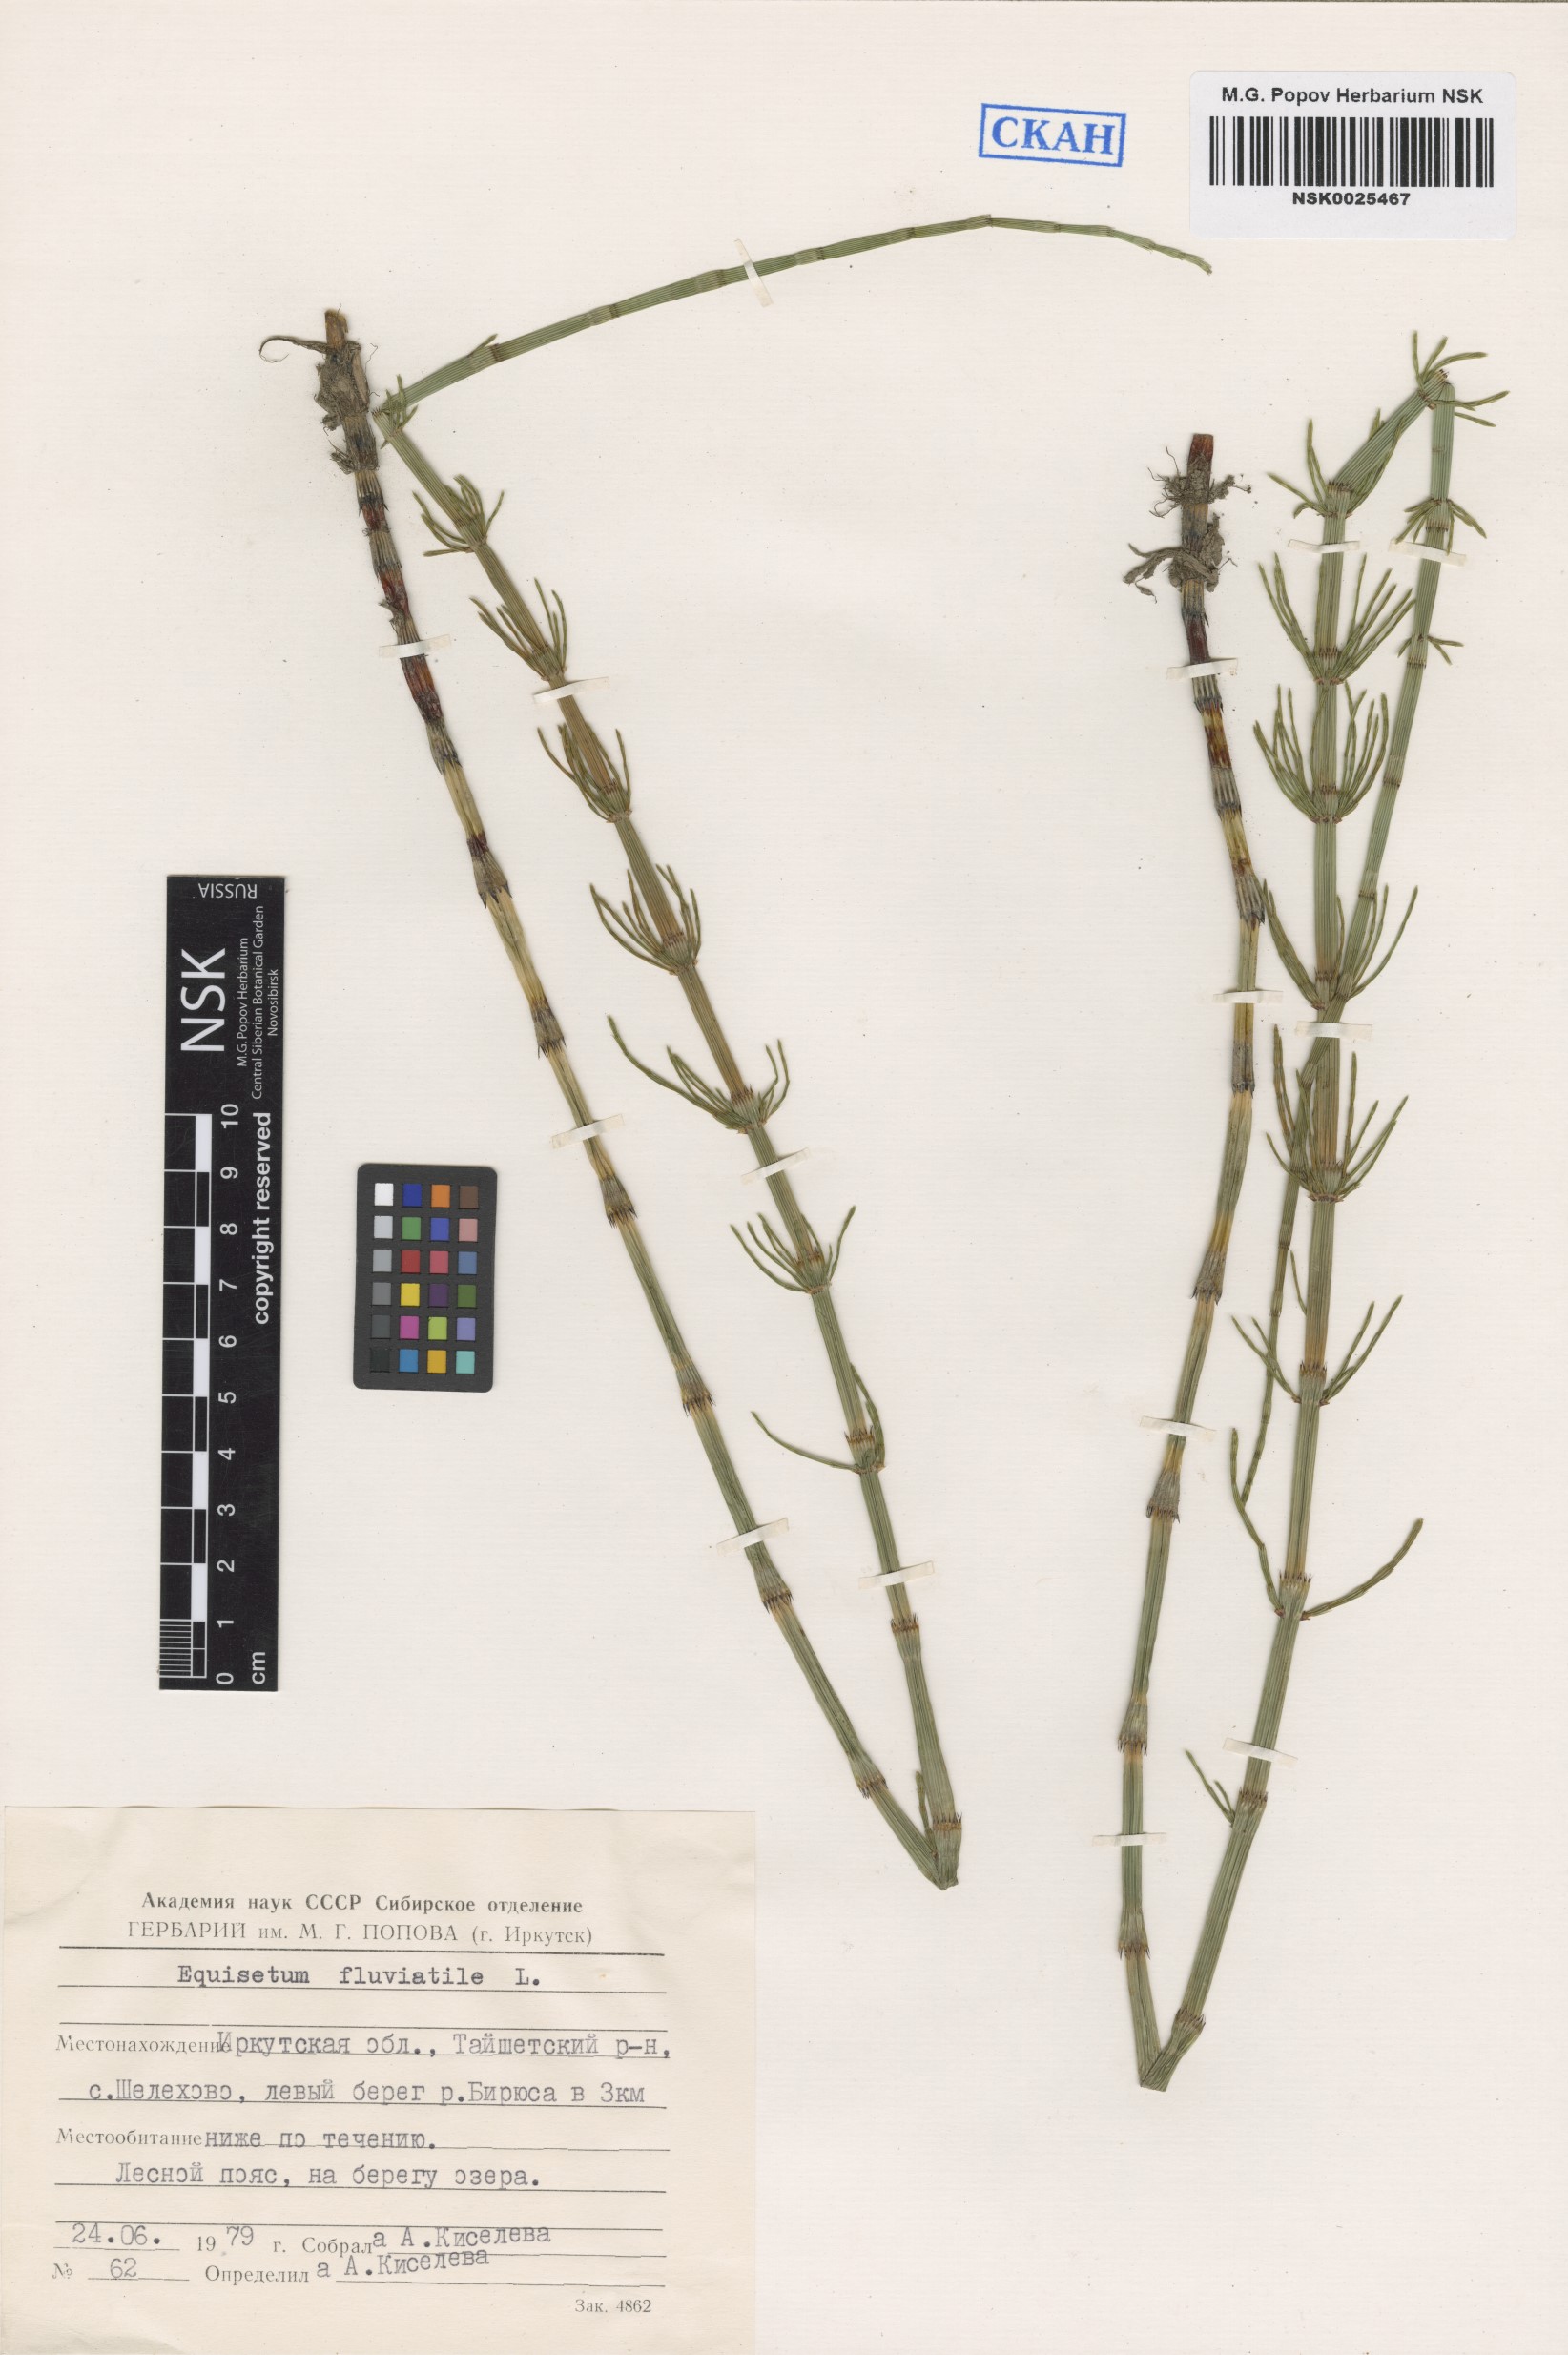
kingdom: Plantae
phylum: Tracheophyta
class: Polypodiopsida
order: Equisetales
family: Equisetaceae
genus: Equisetum
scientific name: Equisetum fluviatile
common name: Water horsetail
